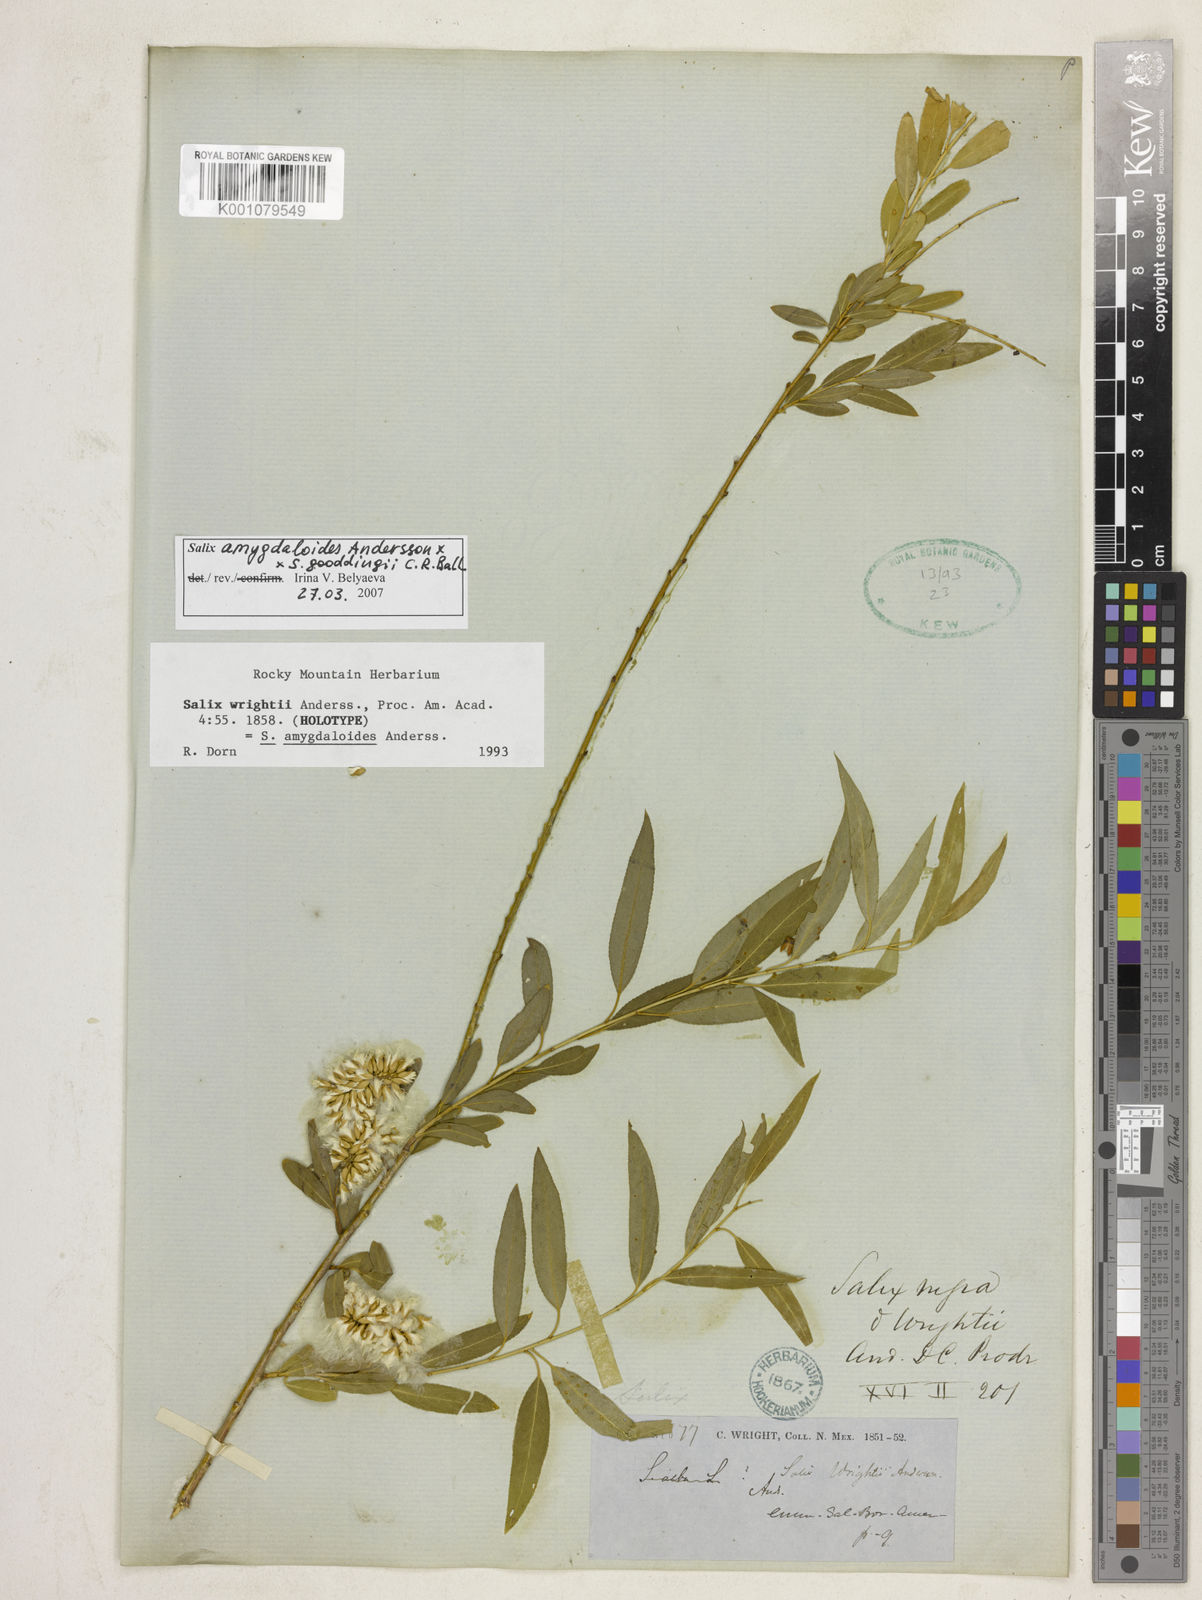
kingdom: Plantae
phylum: Tracheophyta
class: Magnoliopsida
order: Malpighiales
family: Salicaceae
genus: Salix
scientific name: Salix nigra
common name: Black willow
